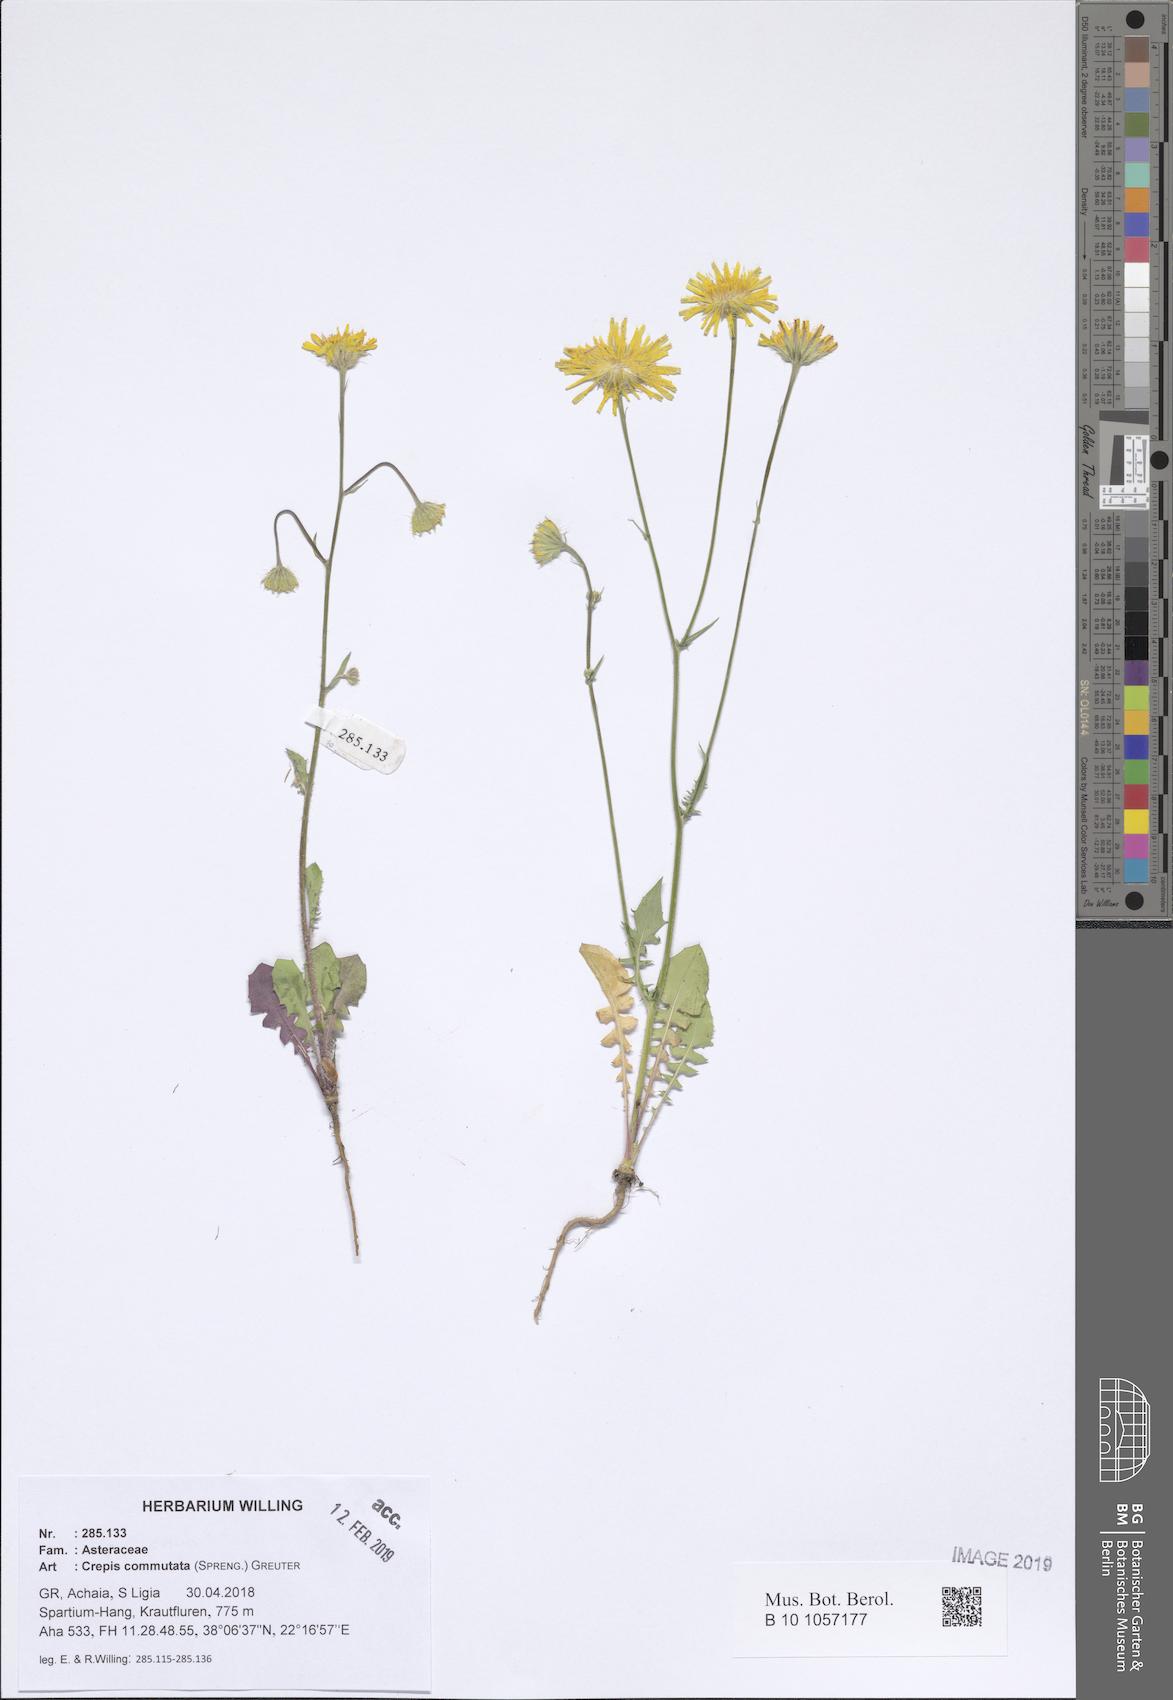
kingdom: Plantae
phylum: Tracheophyta
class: Magnoliopsida
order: Asterales
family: Asteraceae
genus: Crepis
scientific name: Crepis commutata
